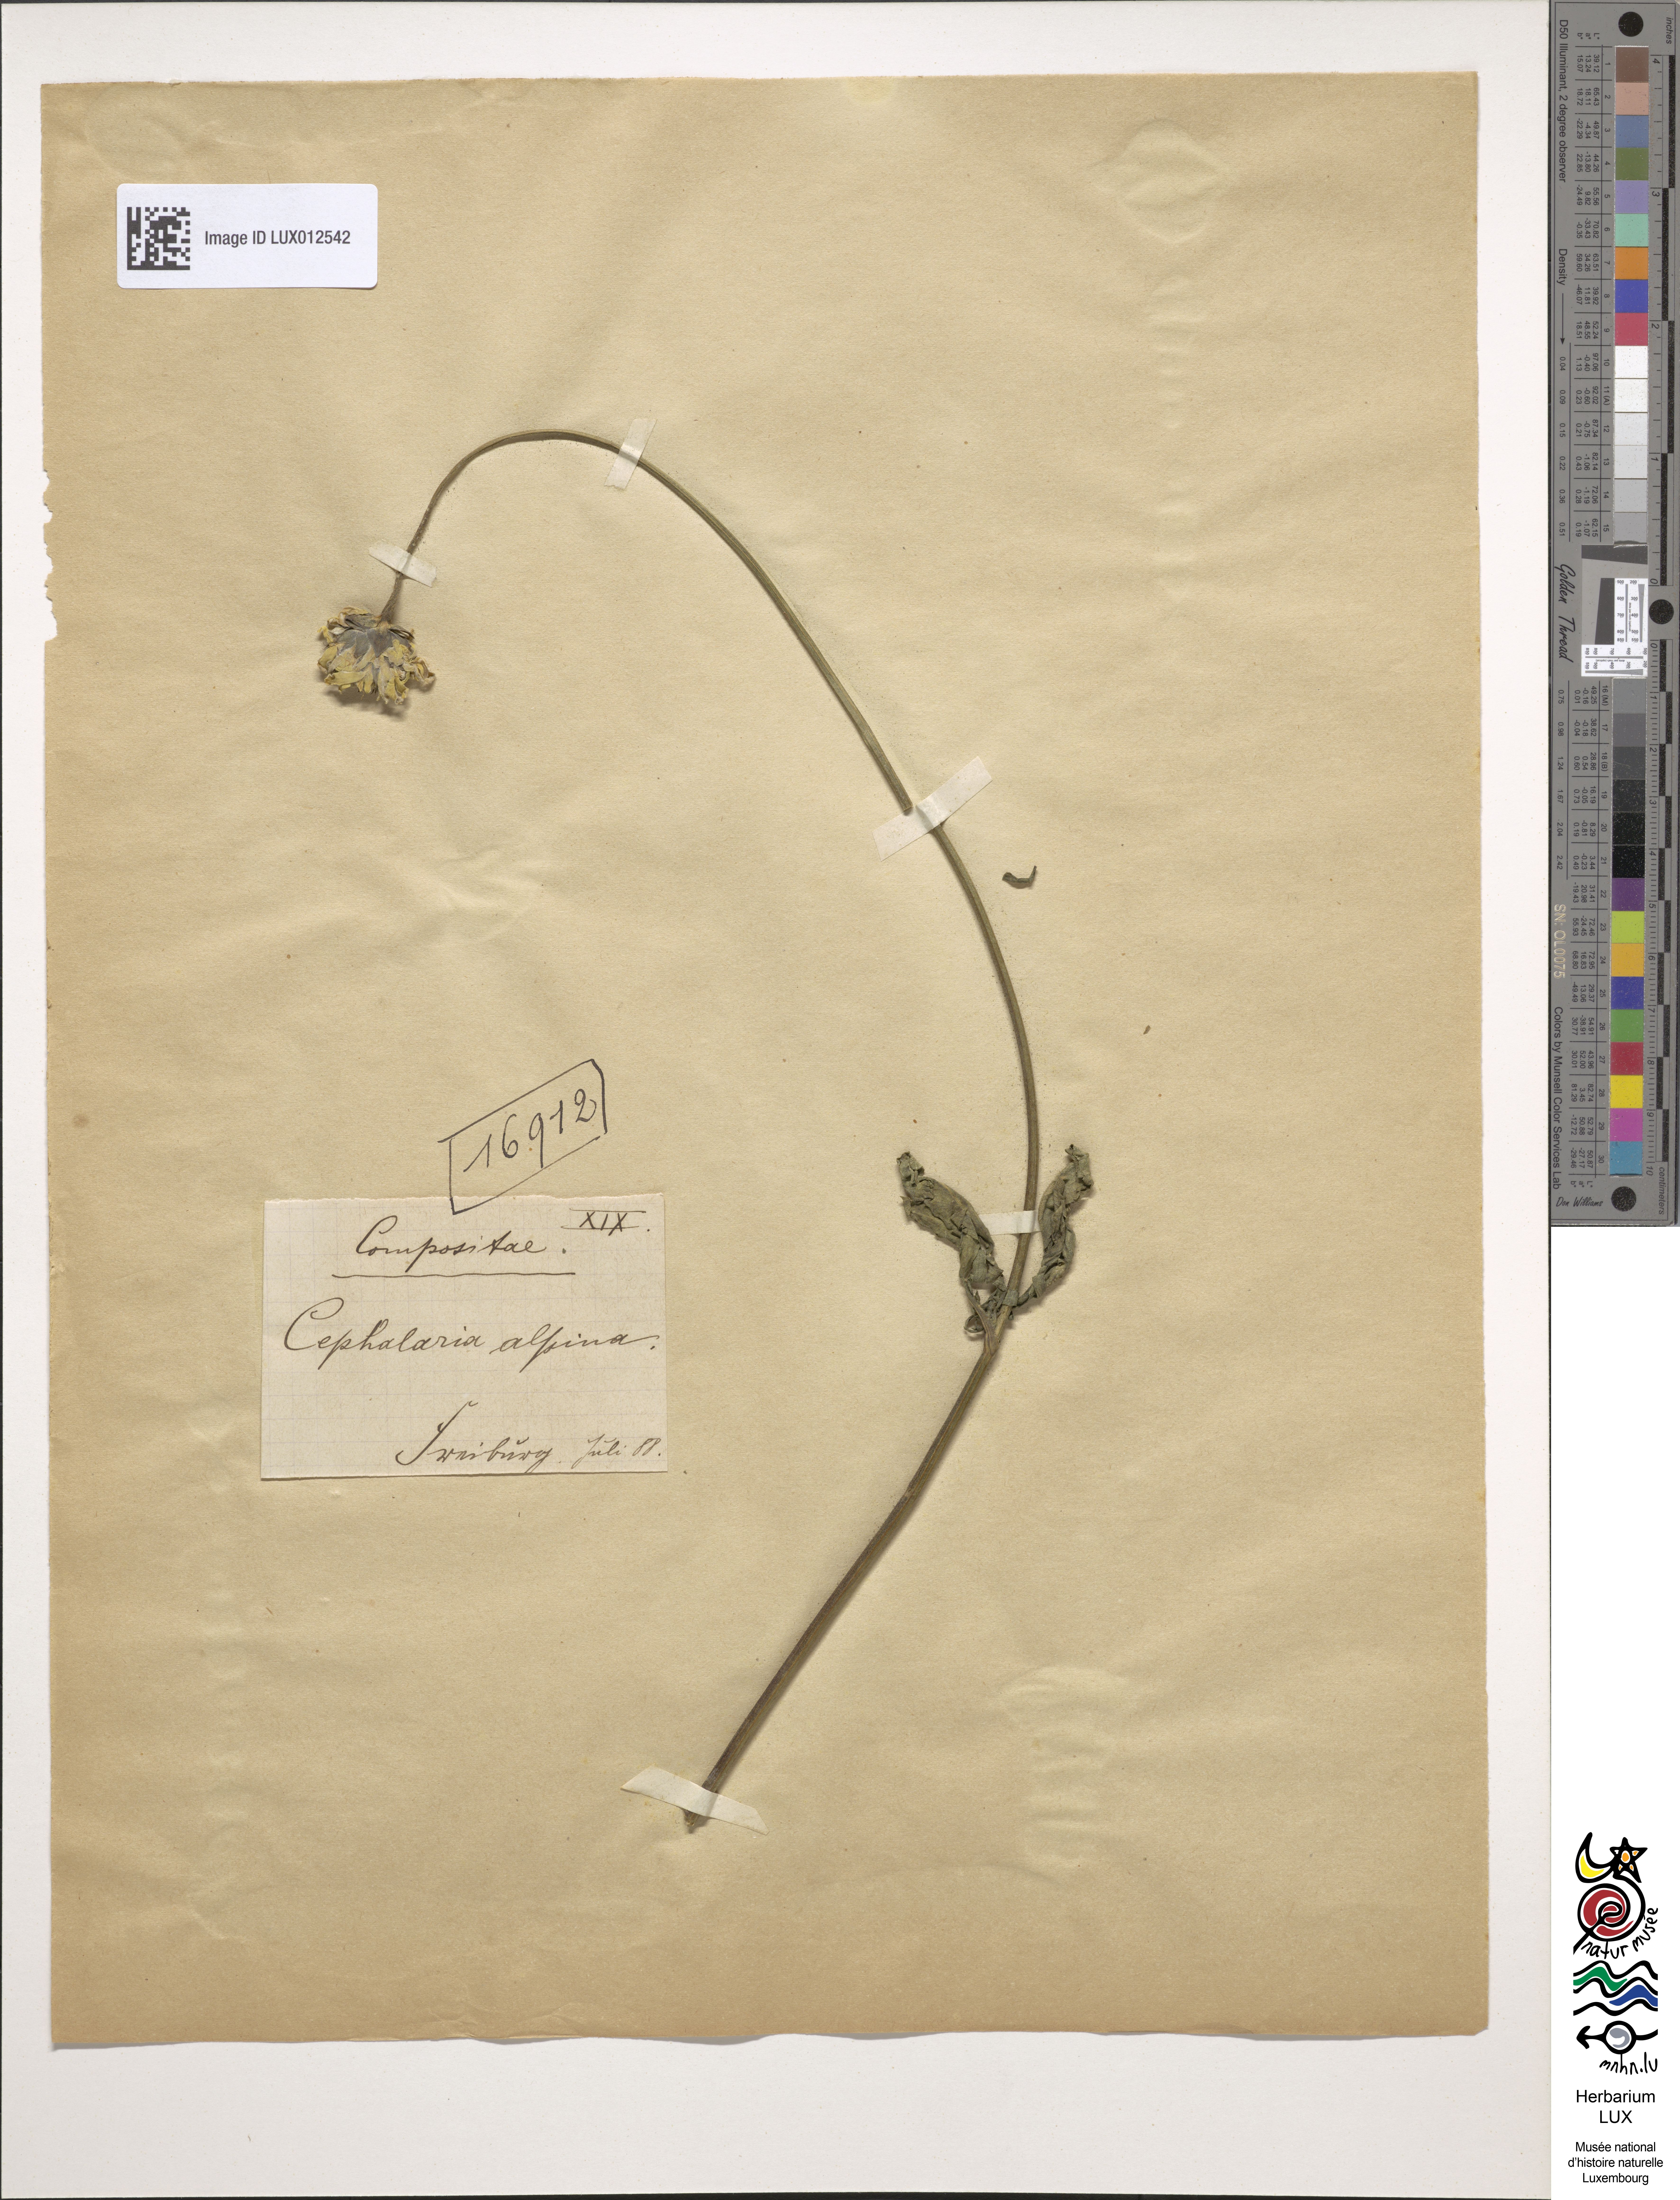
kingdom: Plantae
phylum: Tracheophyta
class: Magnoliopsida
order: Dipsacales
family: Caprifoliaceae
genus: Cephalaria
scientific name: Cephalaria alpina
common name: Alpine-scabious
